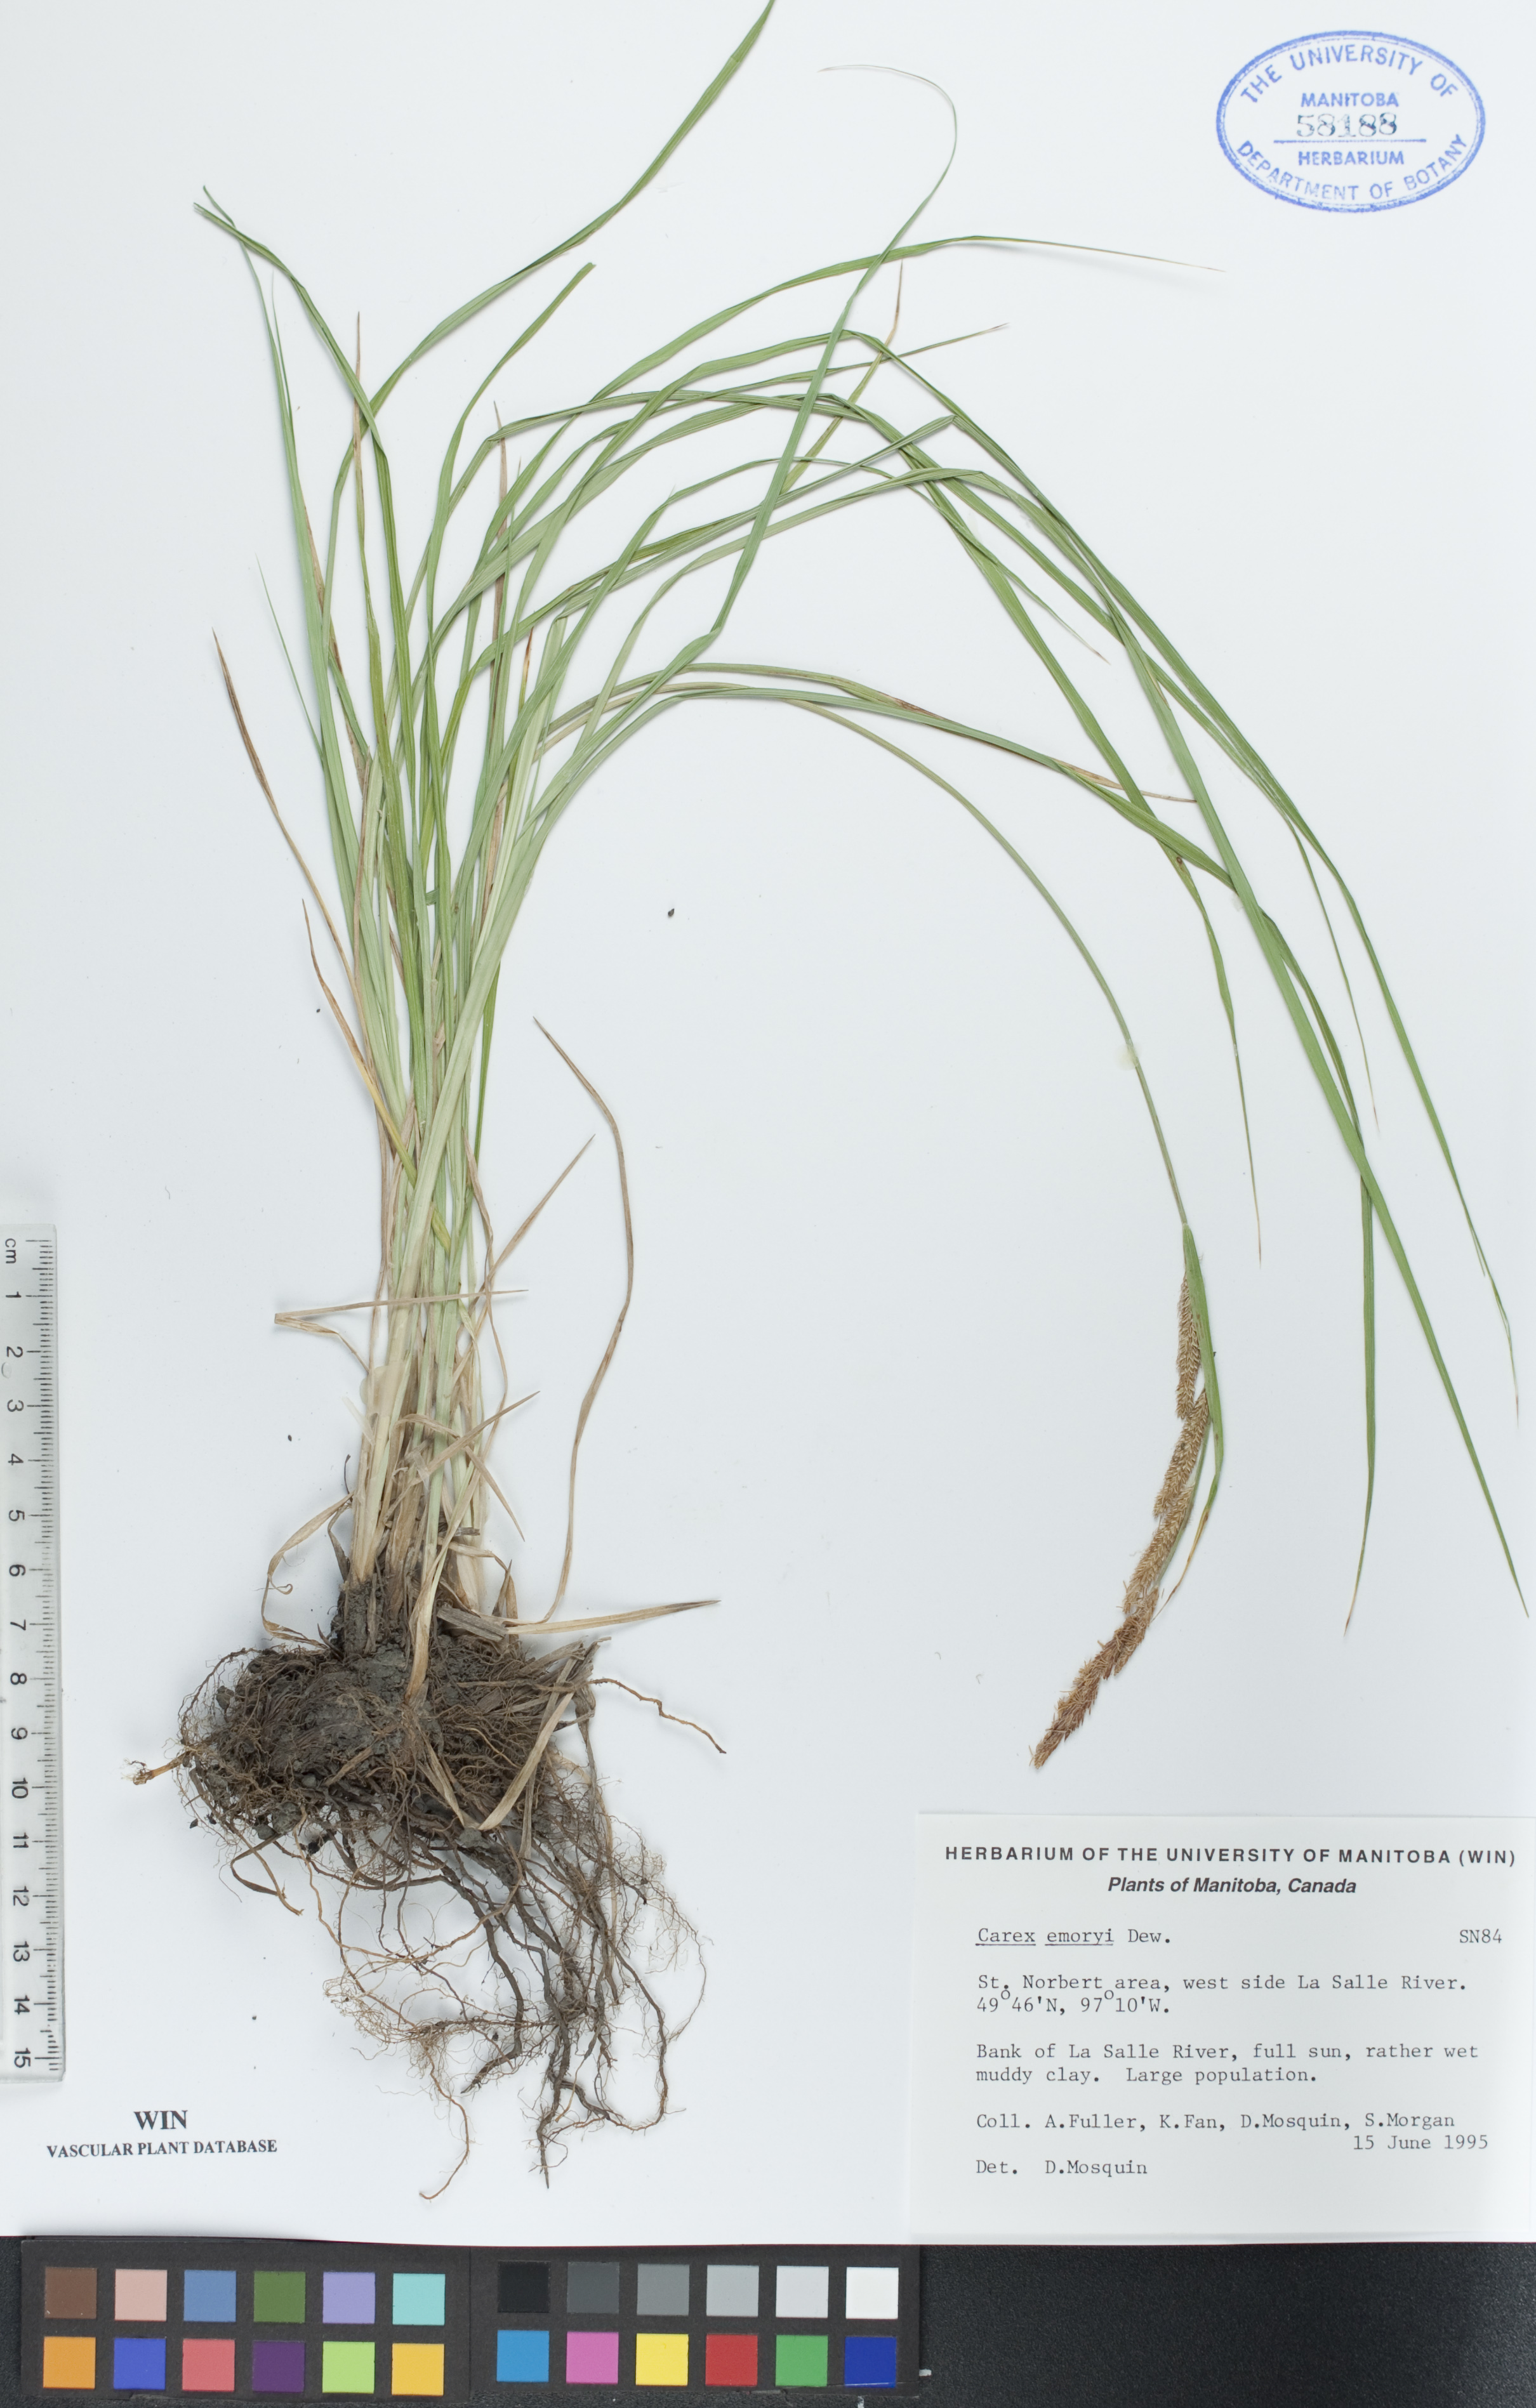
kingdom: Plantae
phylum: Tracheophyta
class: Liliopsida
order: Poales
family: Cyperaceae
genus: Carex
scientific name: Carex emoryi
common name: Emory's sedge
